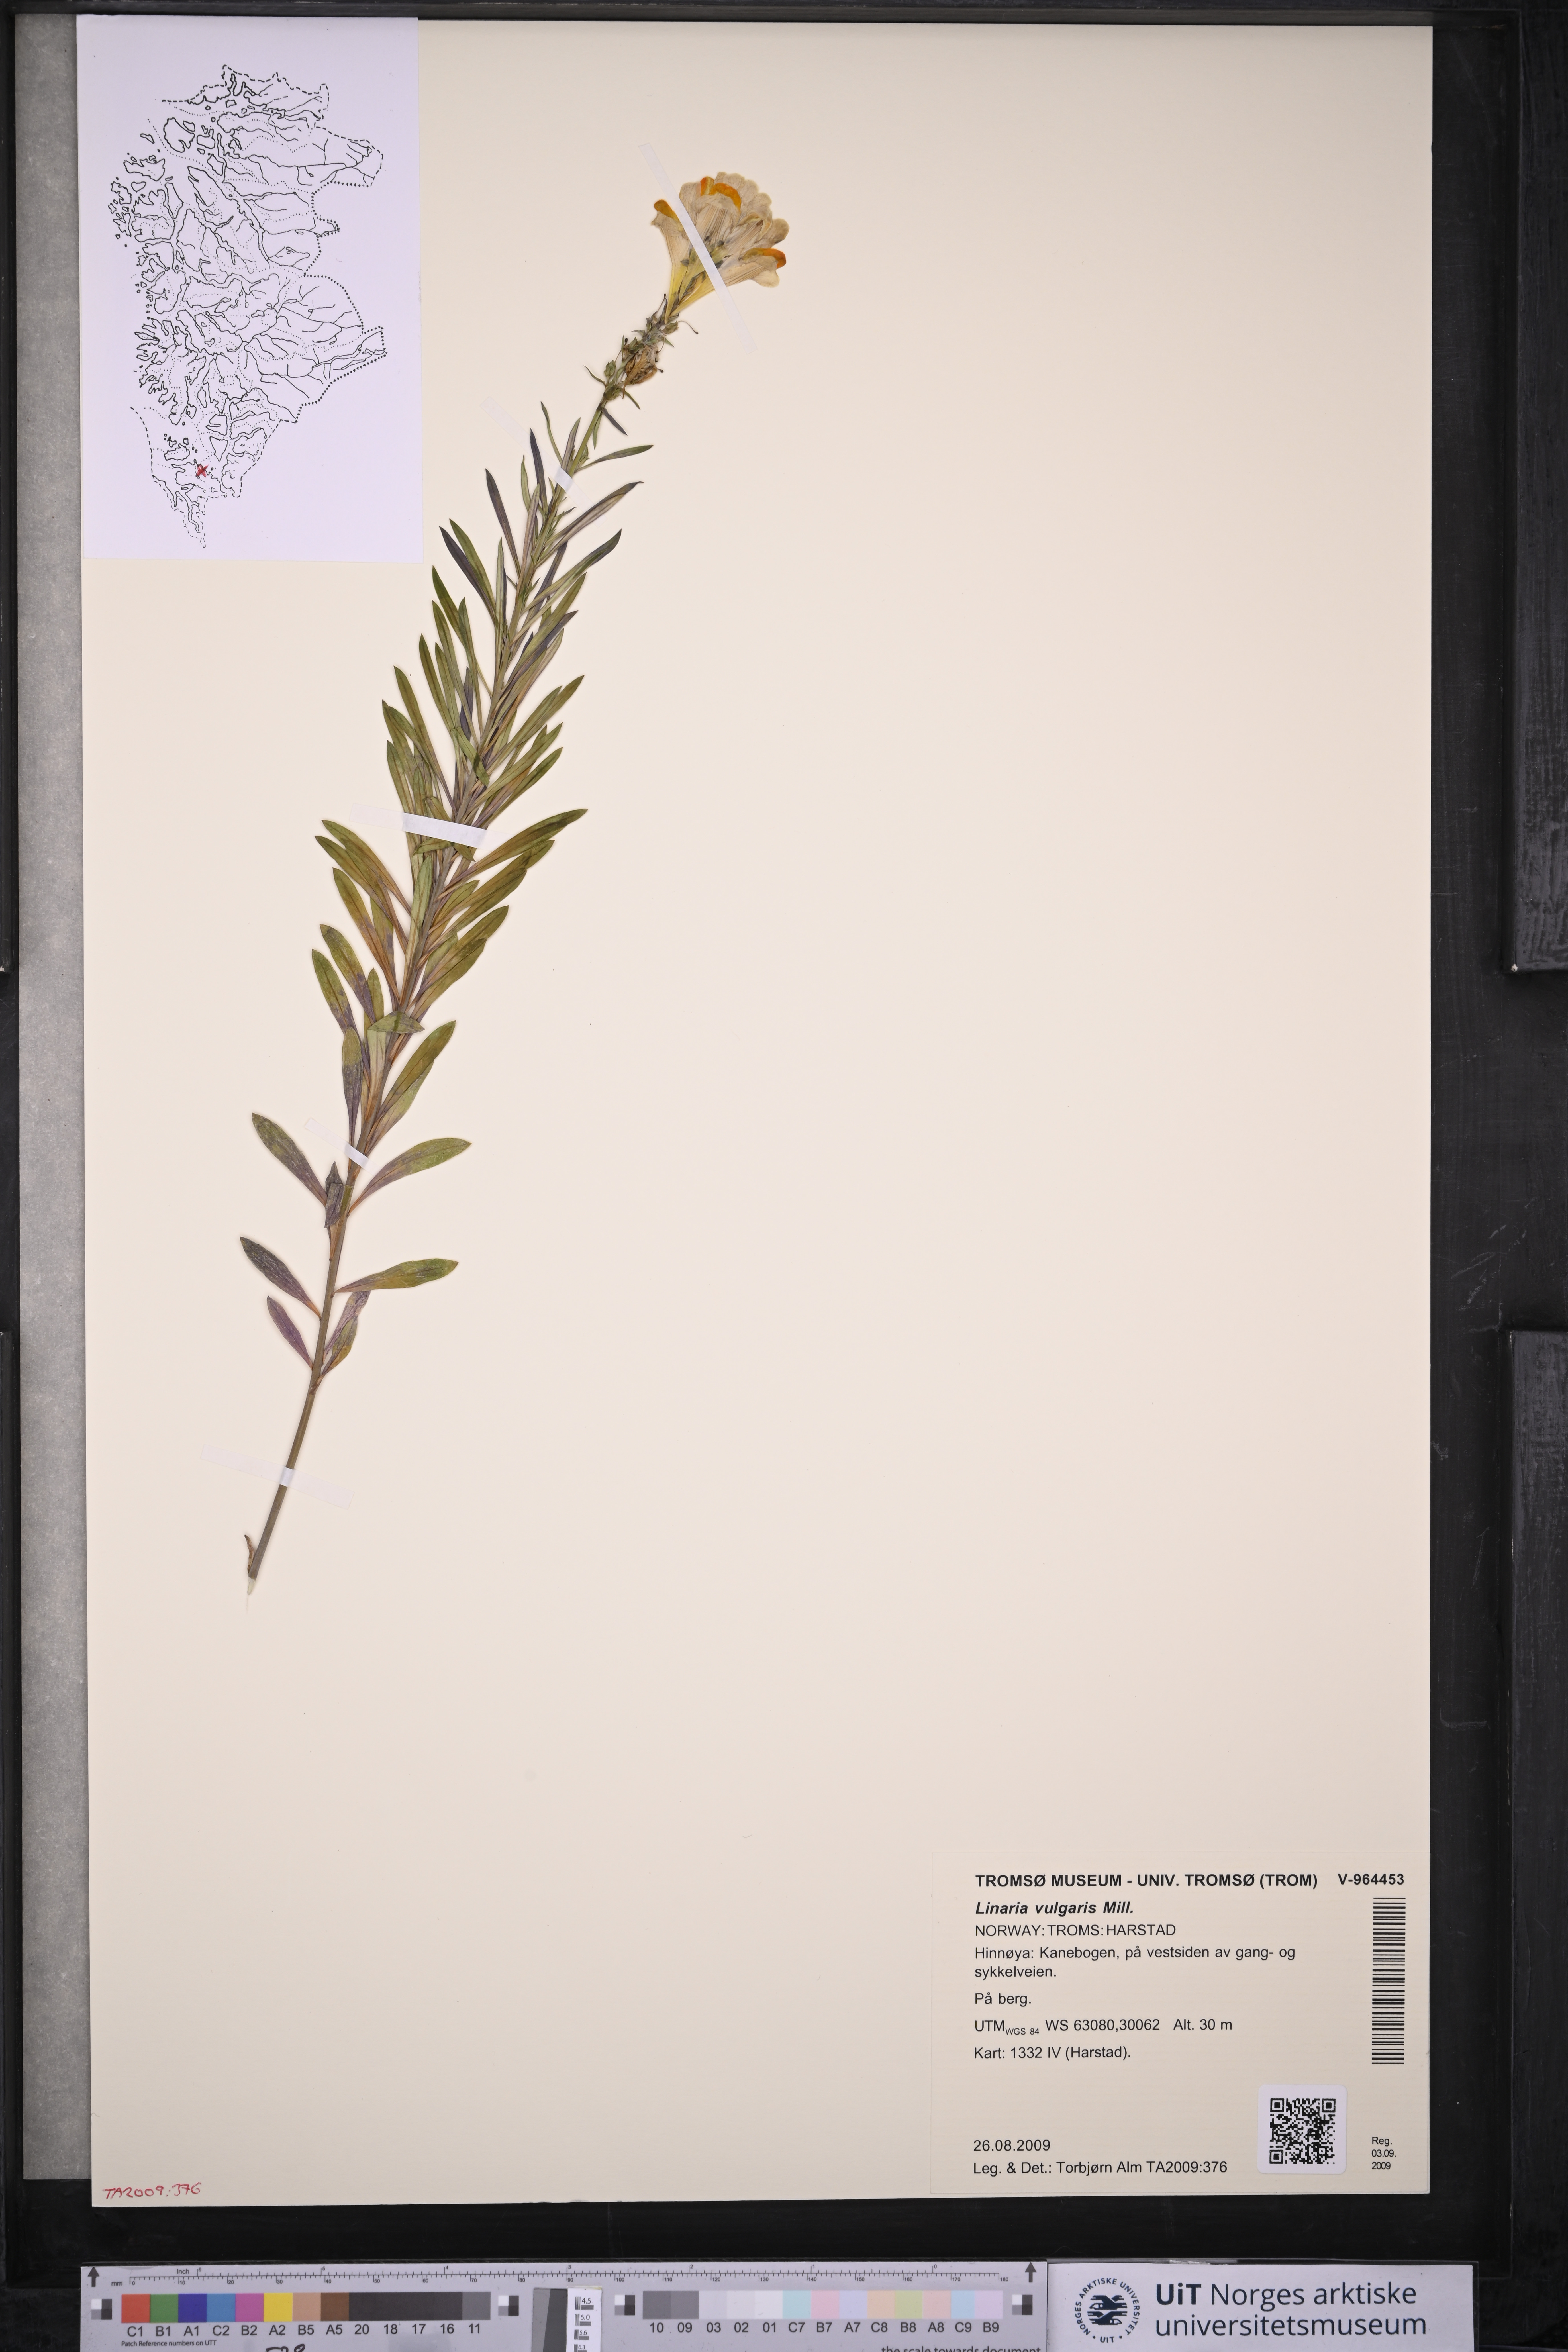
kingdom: Plantae
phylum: Tracheophyta
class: Magnoliopsida
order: Lamiales
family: Plantaginaceae
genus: Linaria
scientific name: Linaria vulgaris
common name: Butter and eggs
